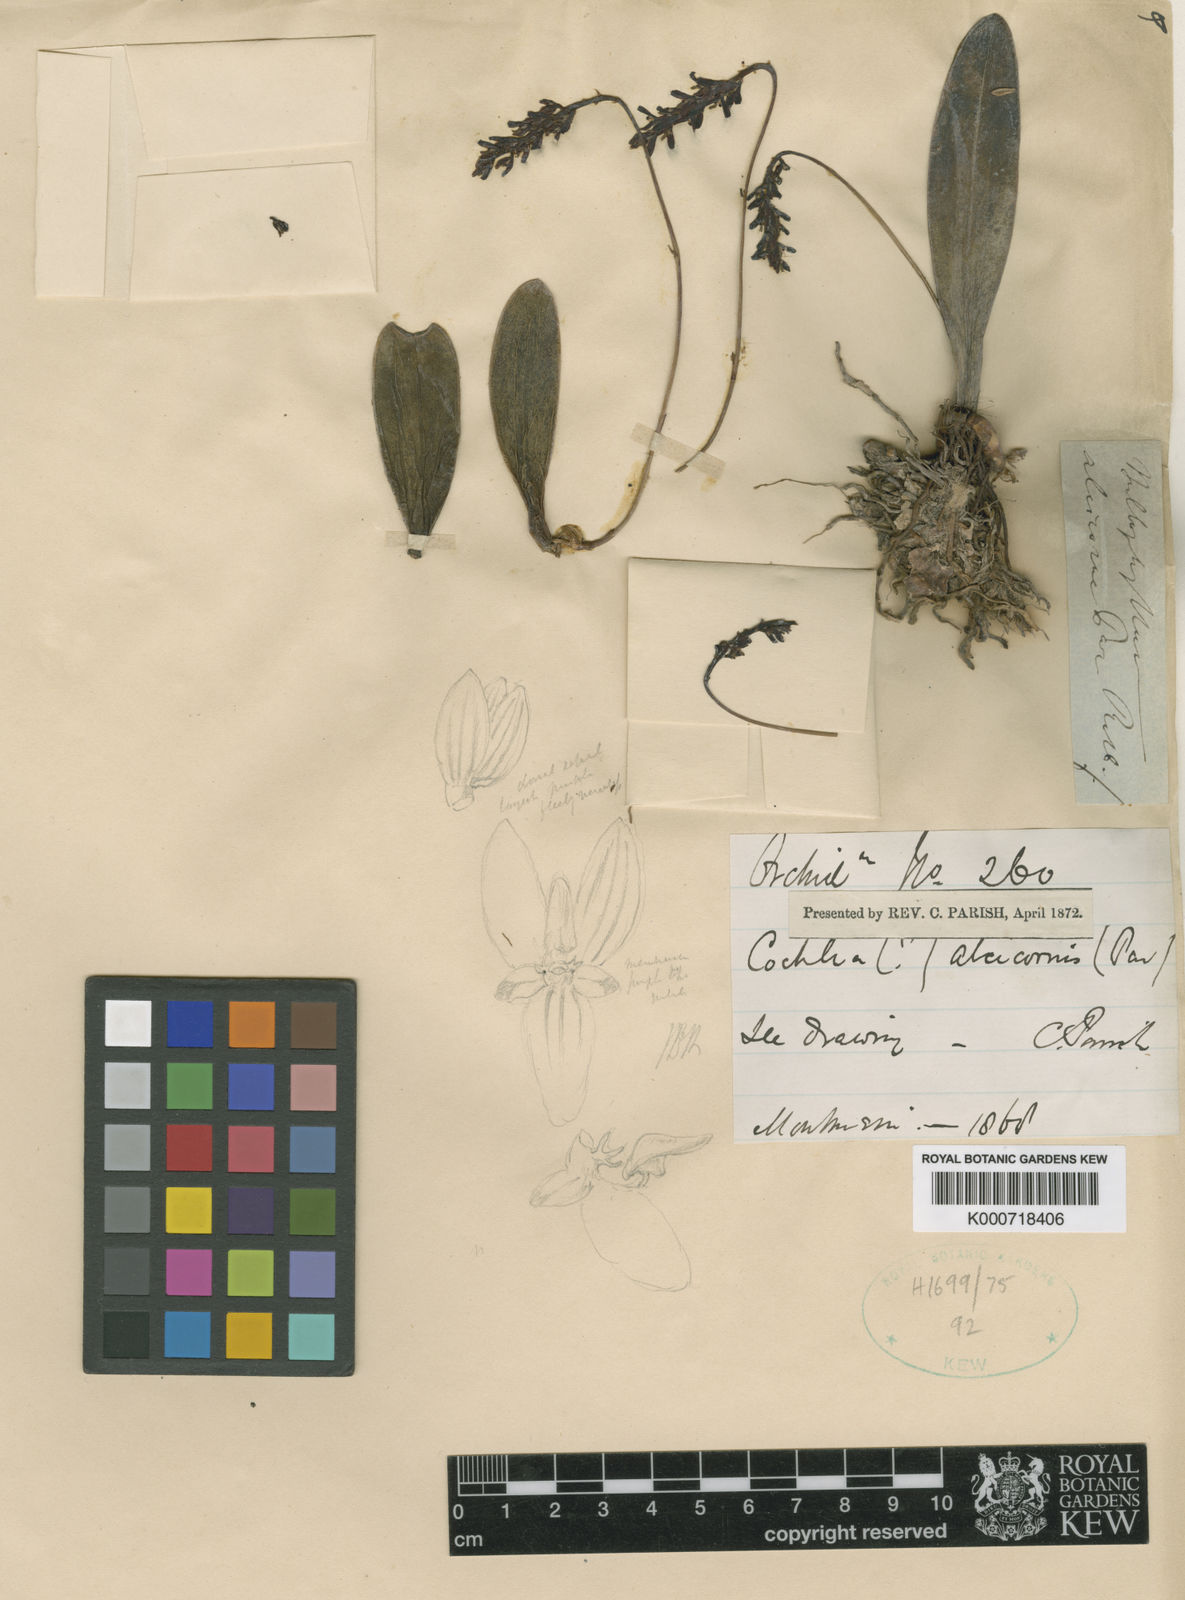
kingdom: Plantae
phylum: Tracheophyta
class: Liliopsida
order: Asparagales
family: Orchidaceae
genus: Bulbophyllum
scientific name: Bulbophyllum alcicorne
